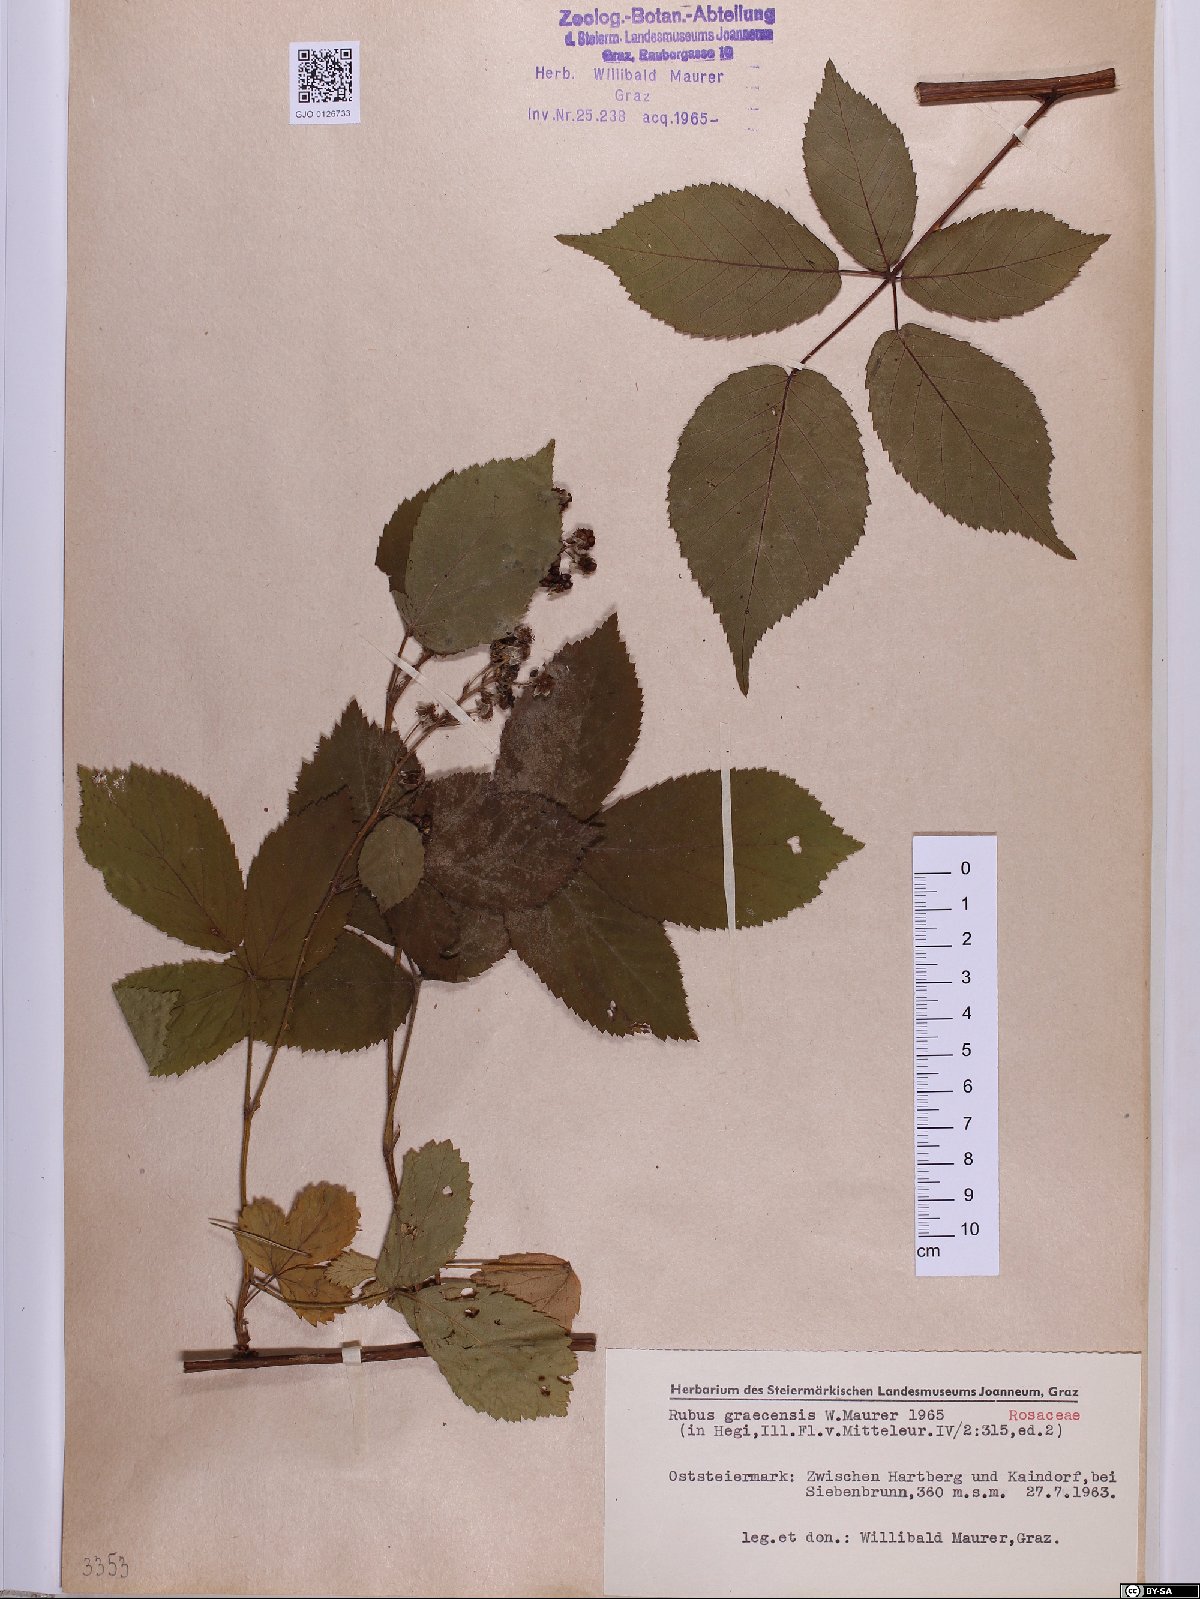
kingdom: Plantae
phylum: Tracheophyta
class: Magnoliopsida
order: Rosales
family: Rosaceae
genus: Rubus
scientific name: Rubus graecensis
